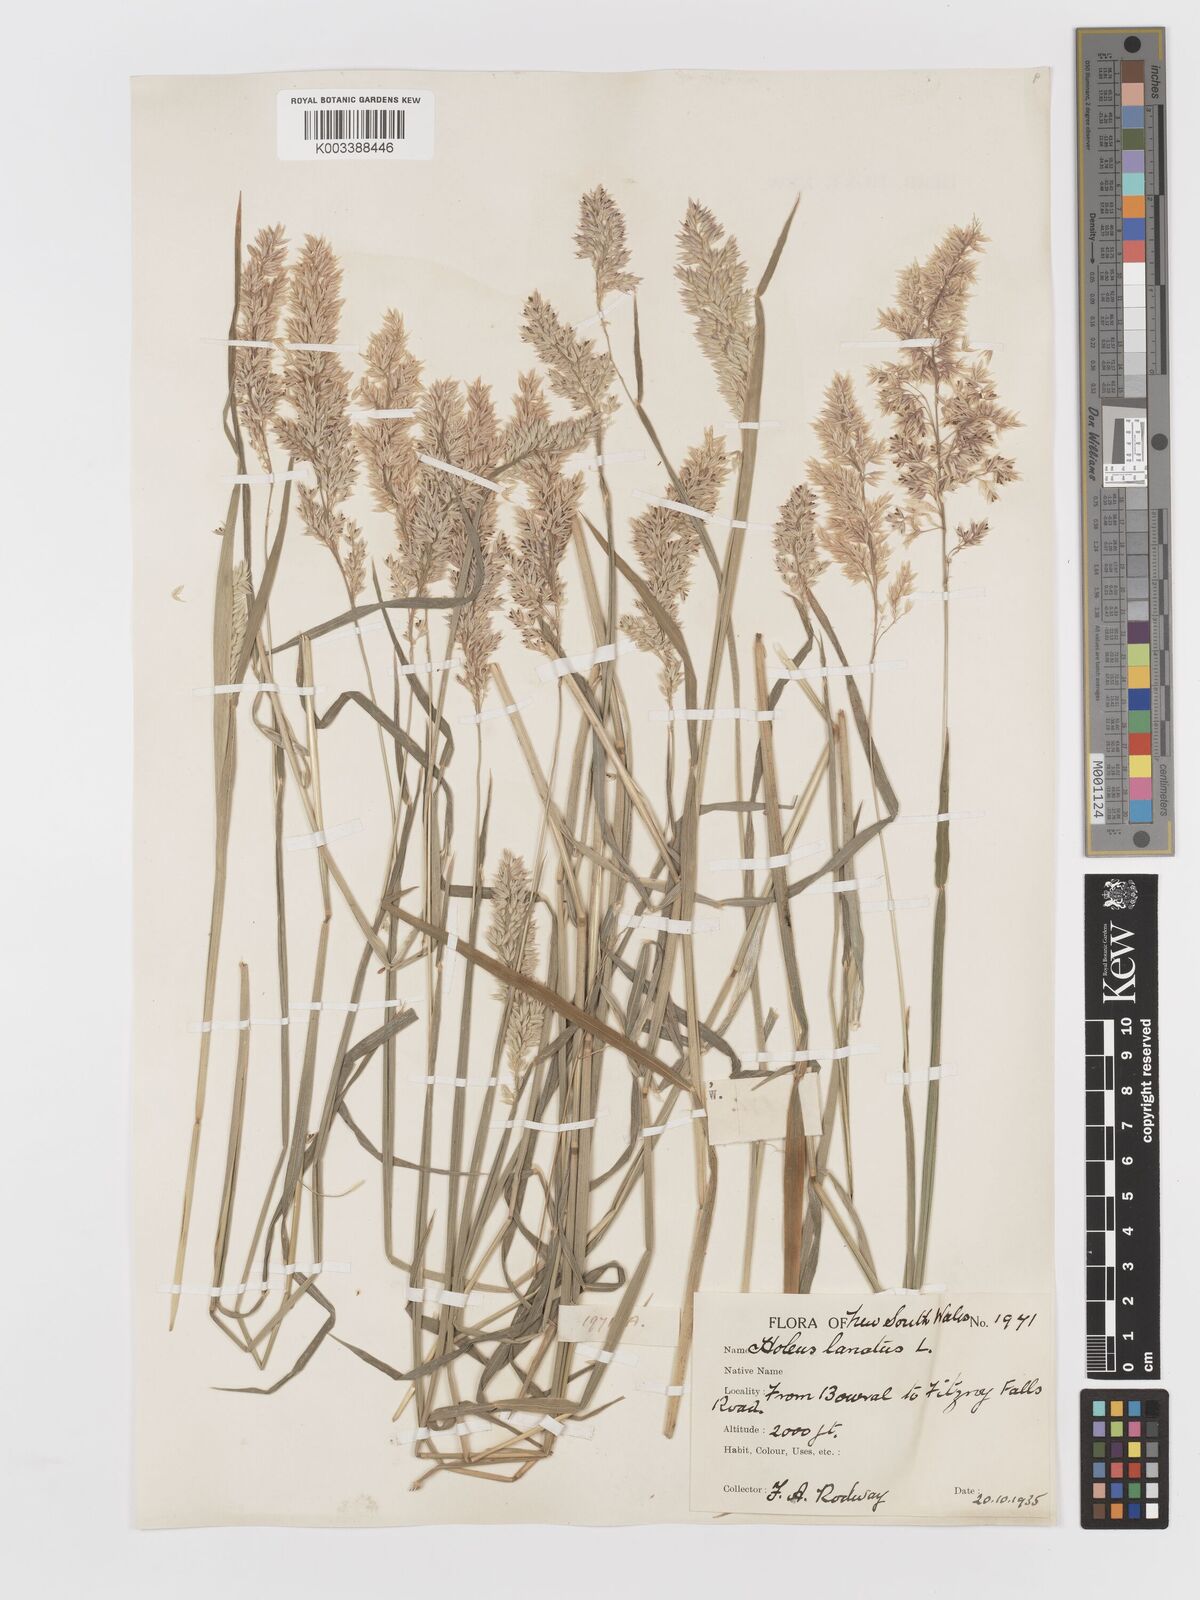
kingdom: Plantae
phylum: Tracheophyta
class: Liliopsida
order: Poales
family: Poaceae
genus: Holcus
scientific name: Holcus lanatus
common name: Yorkshire-fog
